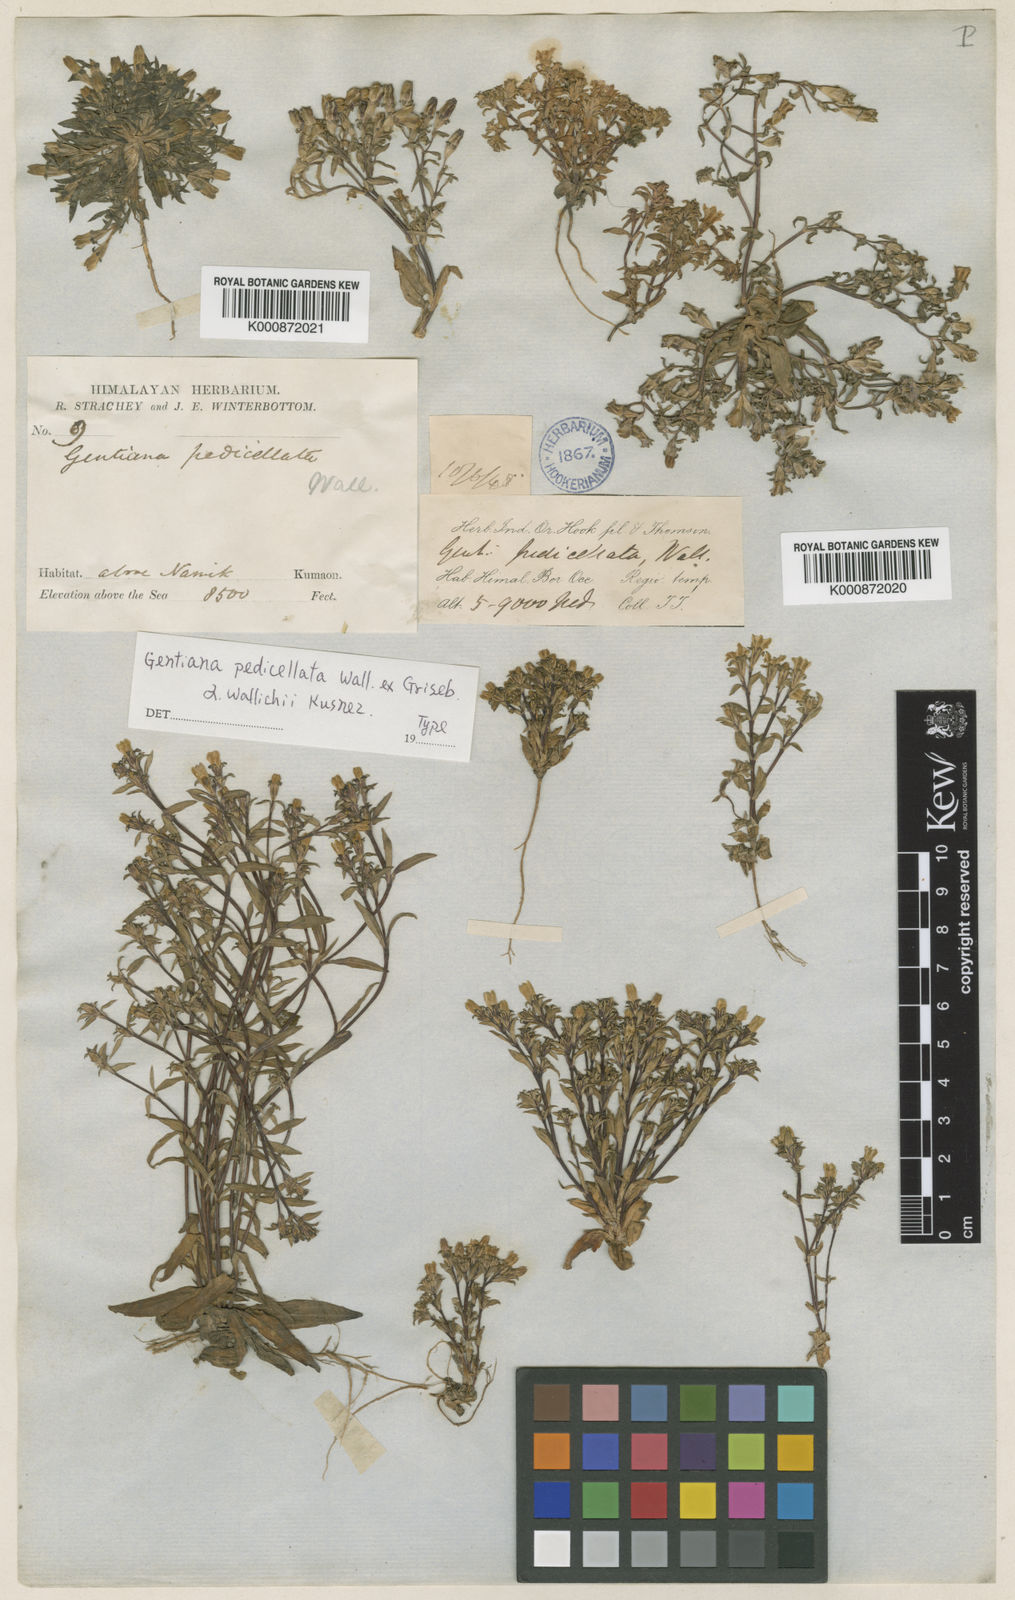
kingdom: Plantae
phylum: Tracheophyta
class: Magnoliopsida
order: Gentianales
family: Gentianaceae
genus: Gentiana
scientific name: Gentiana pedicellata
